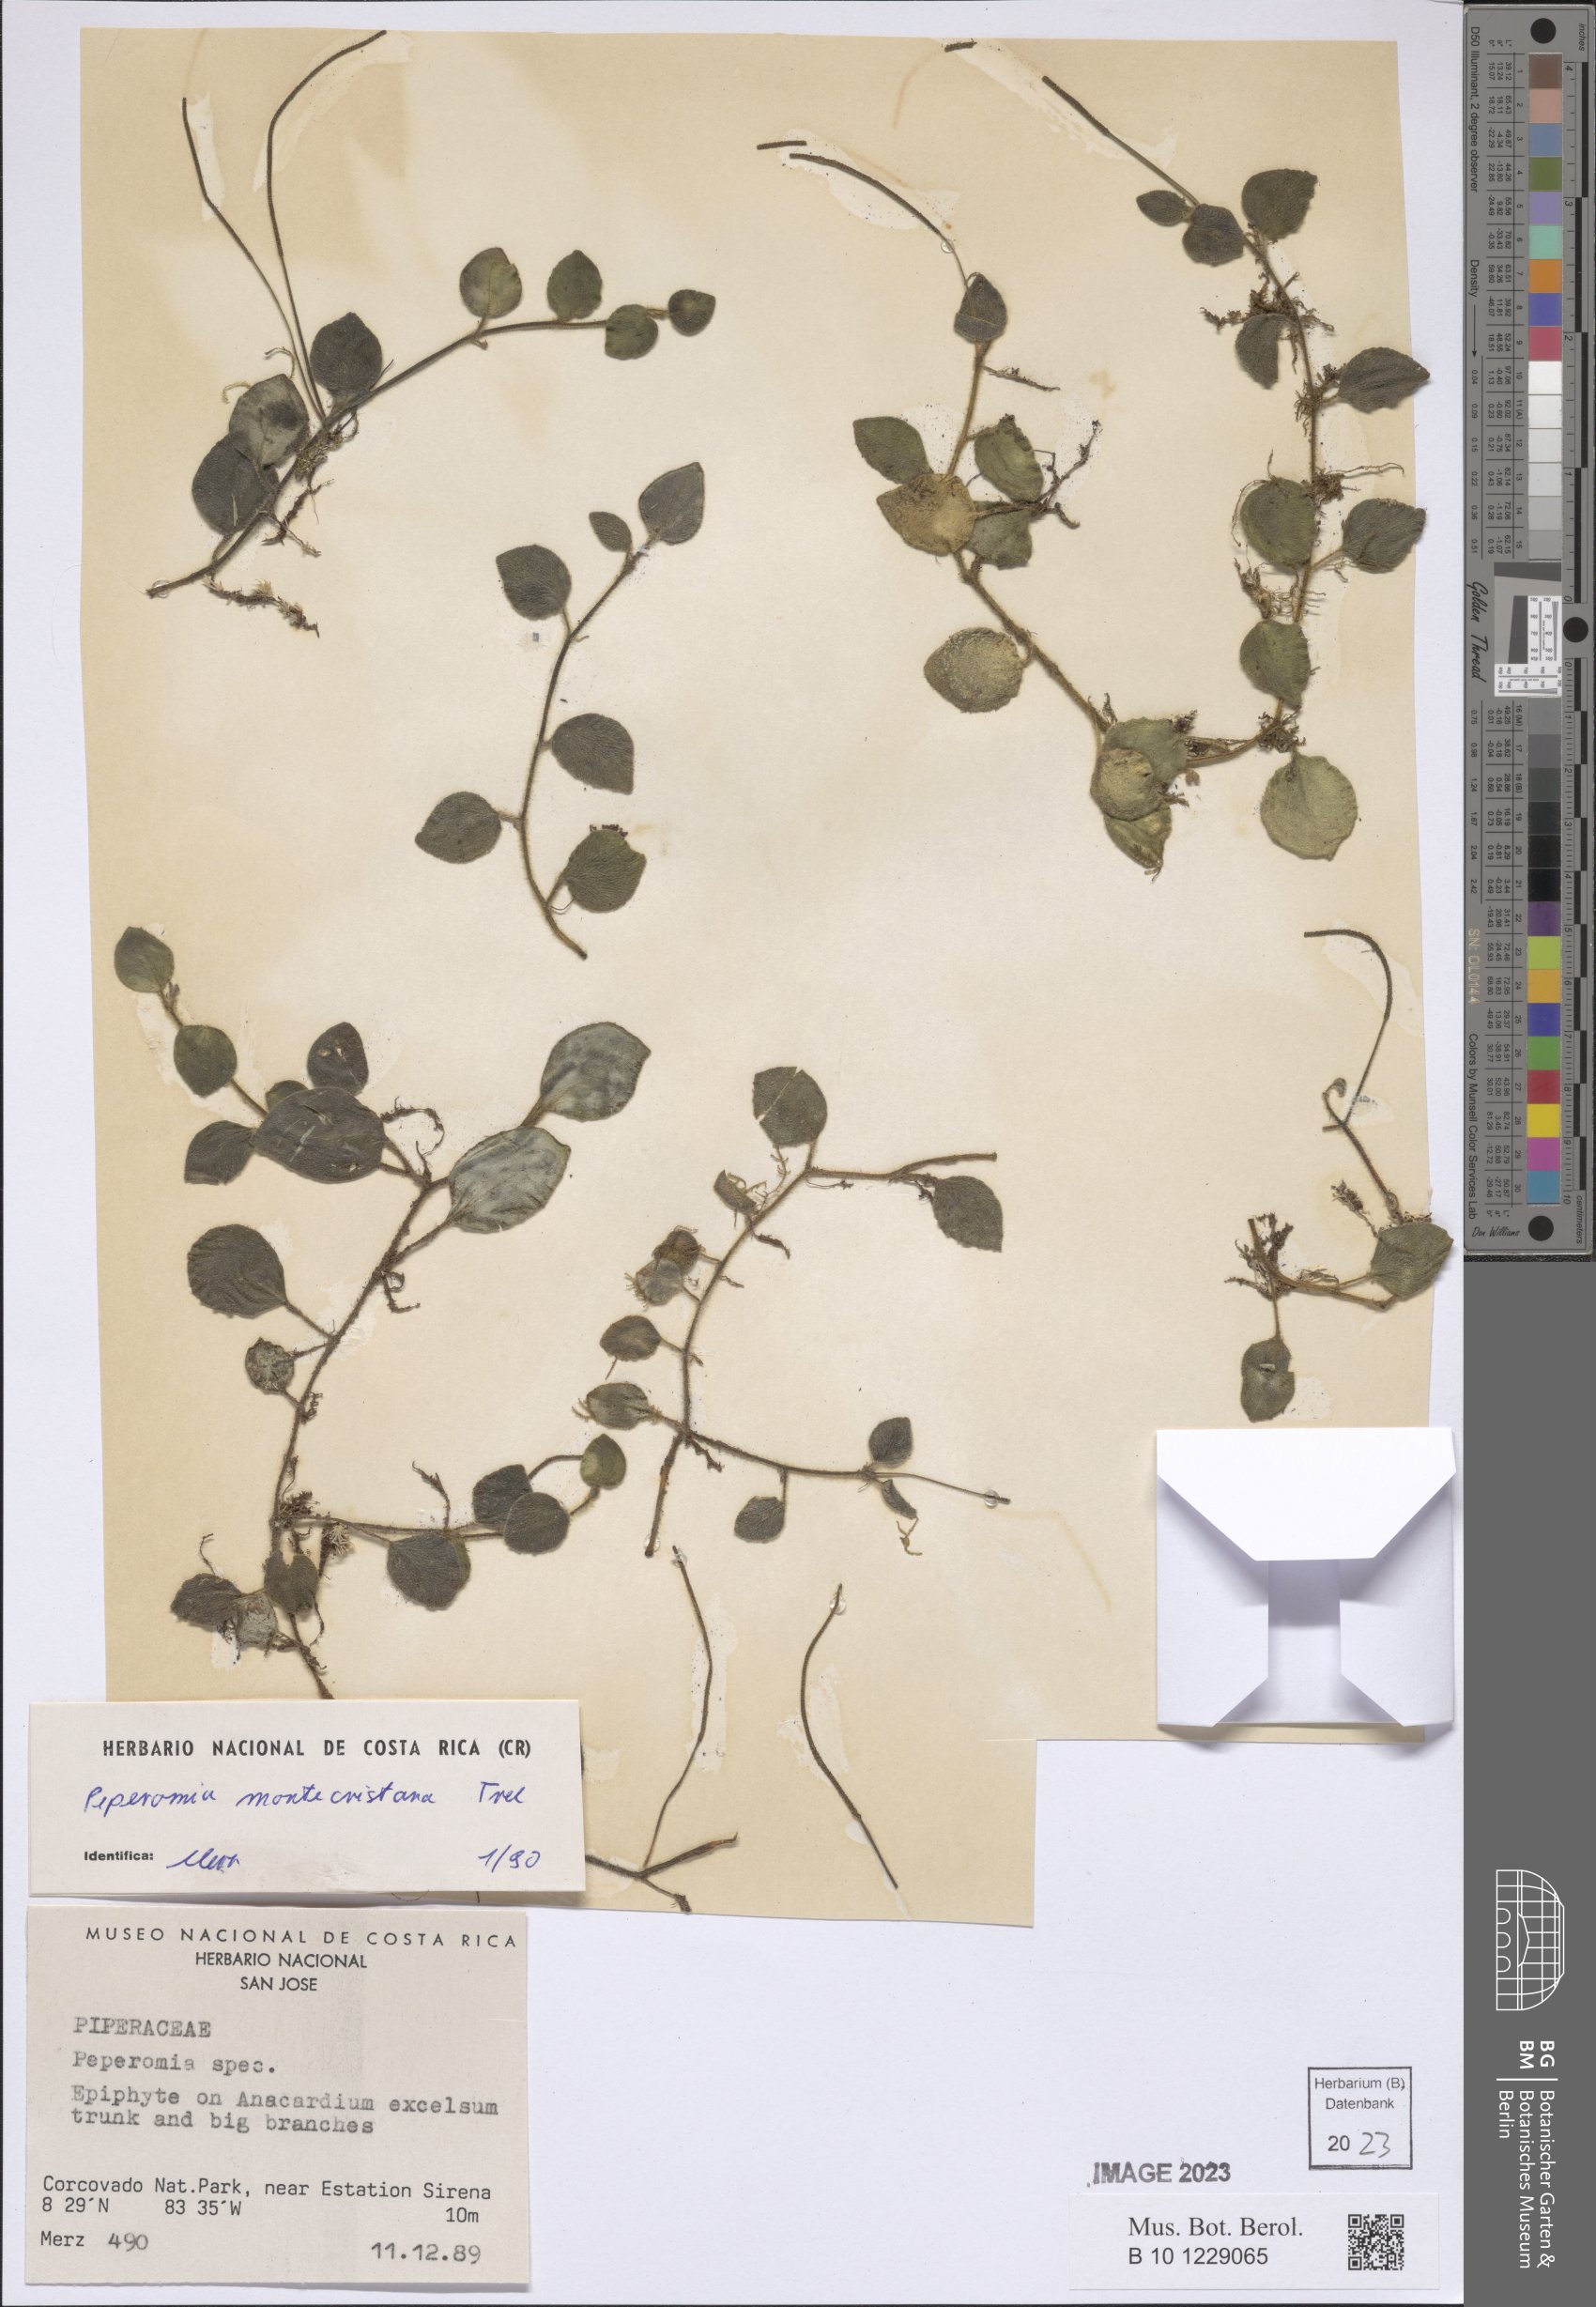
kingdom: Plantae
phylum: Tracheophyta
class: Magnoliopsida
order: Piperales
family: Piperaceae
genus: Peperomia
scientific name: Peperomia montecristana
